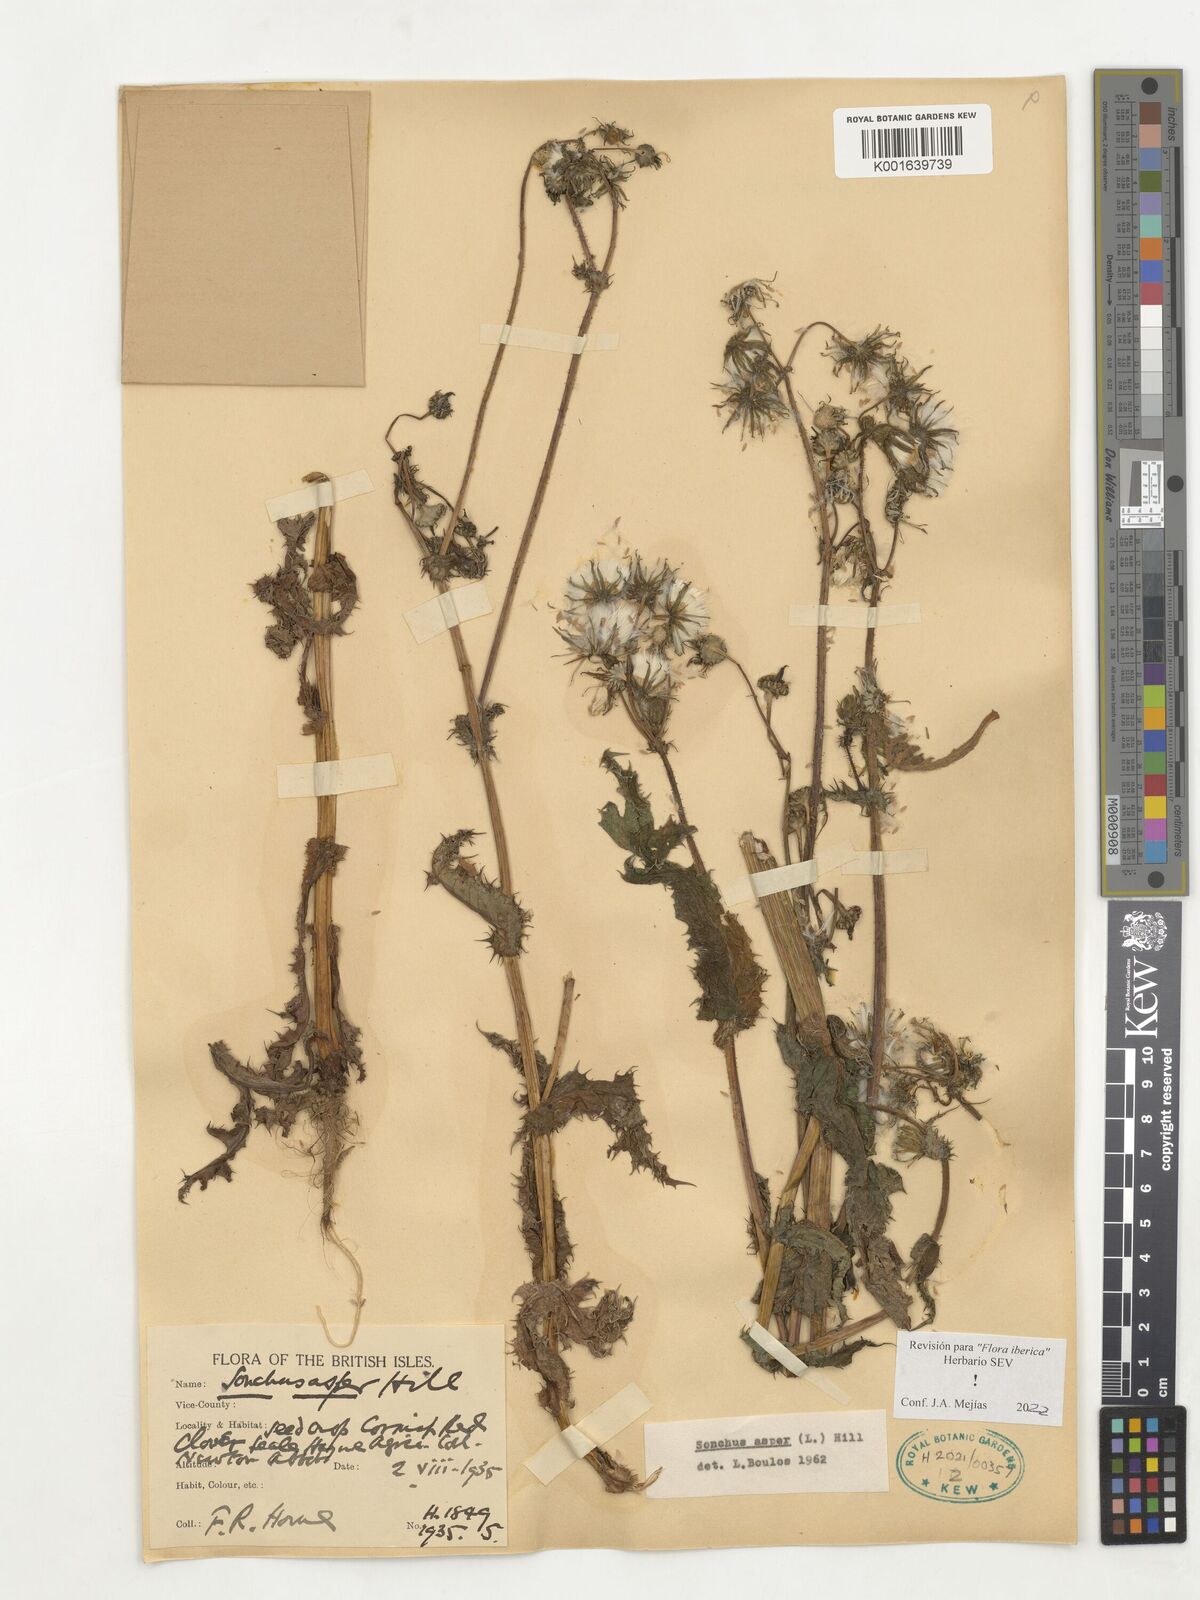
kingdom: Plantae
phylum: Tracheophyta
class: Magnoliopsida
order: Asterales
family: Asteraceae
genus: Sonchus
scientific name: Sonchus asper
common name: Prickly sow-thistle
